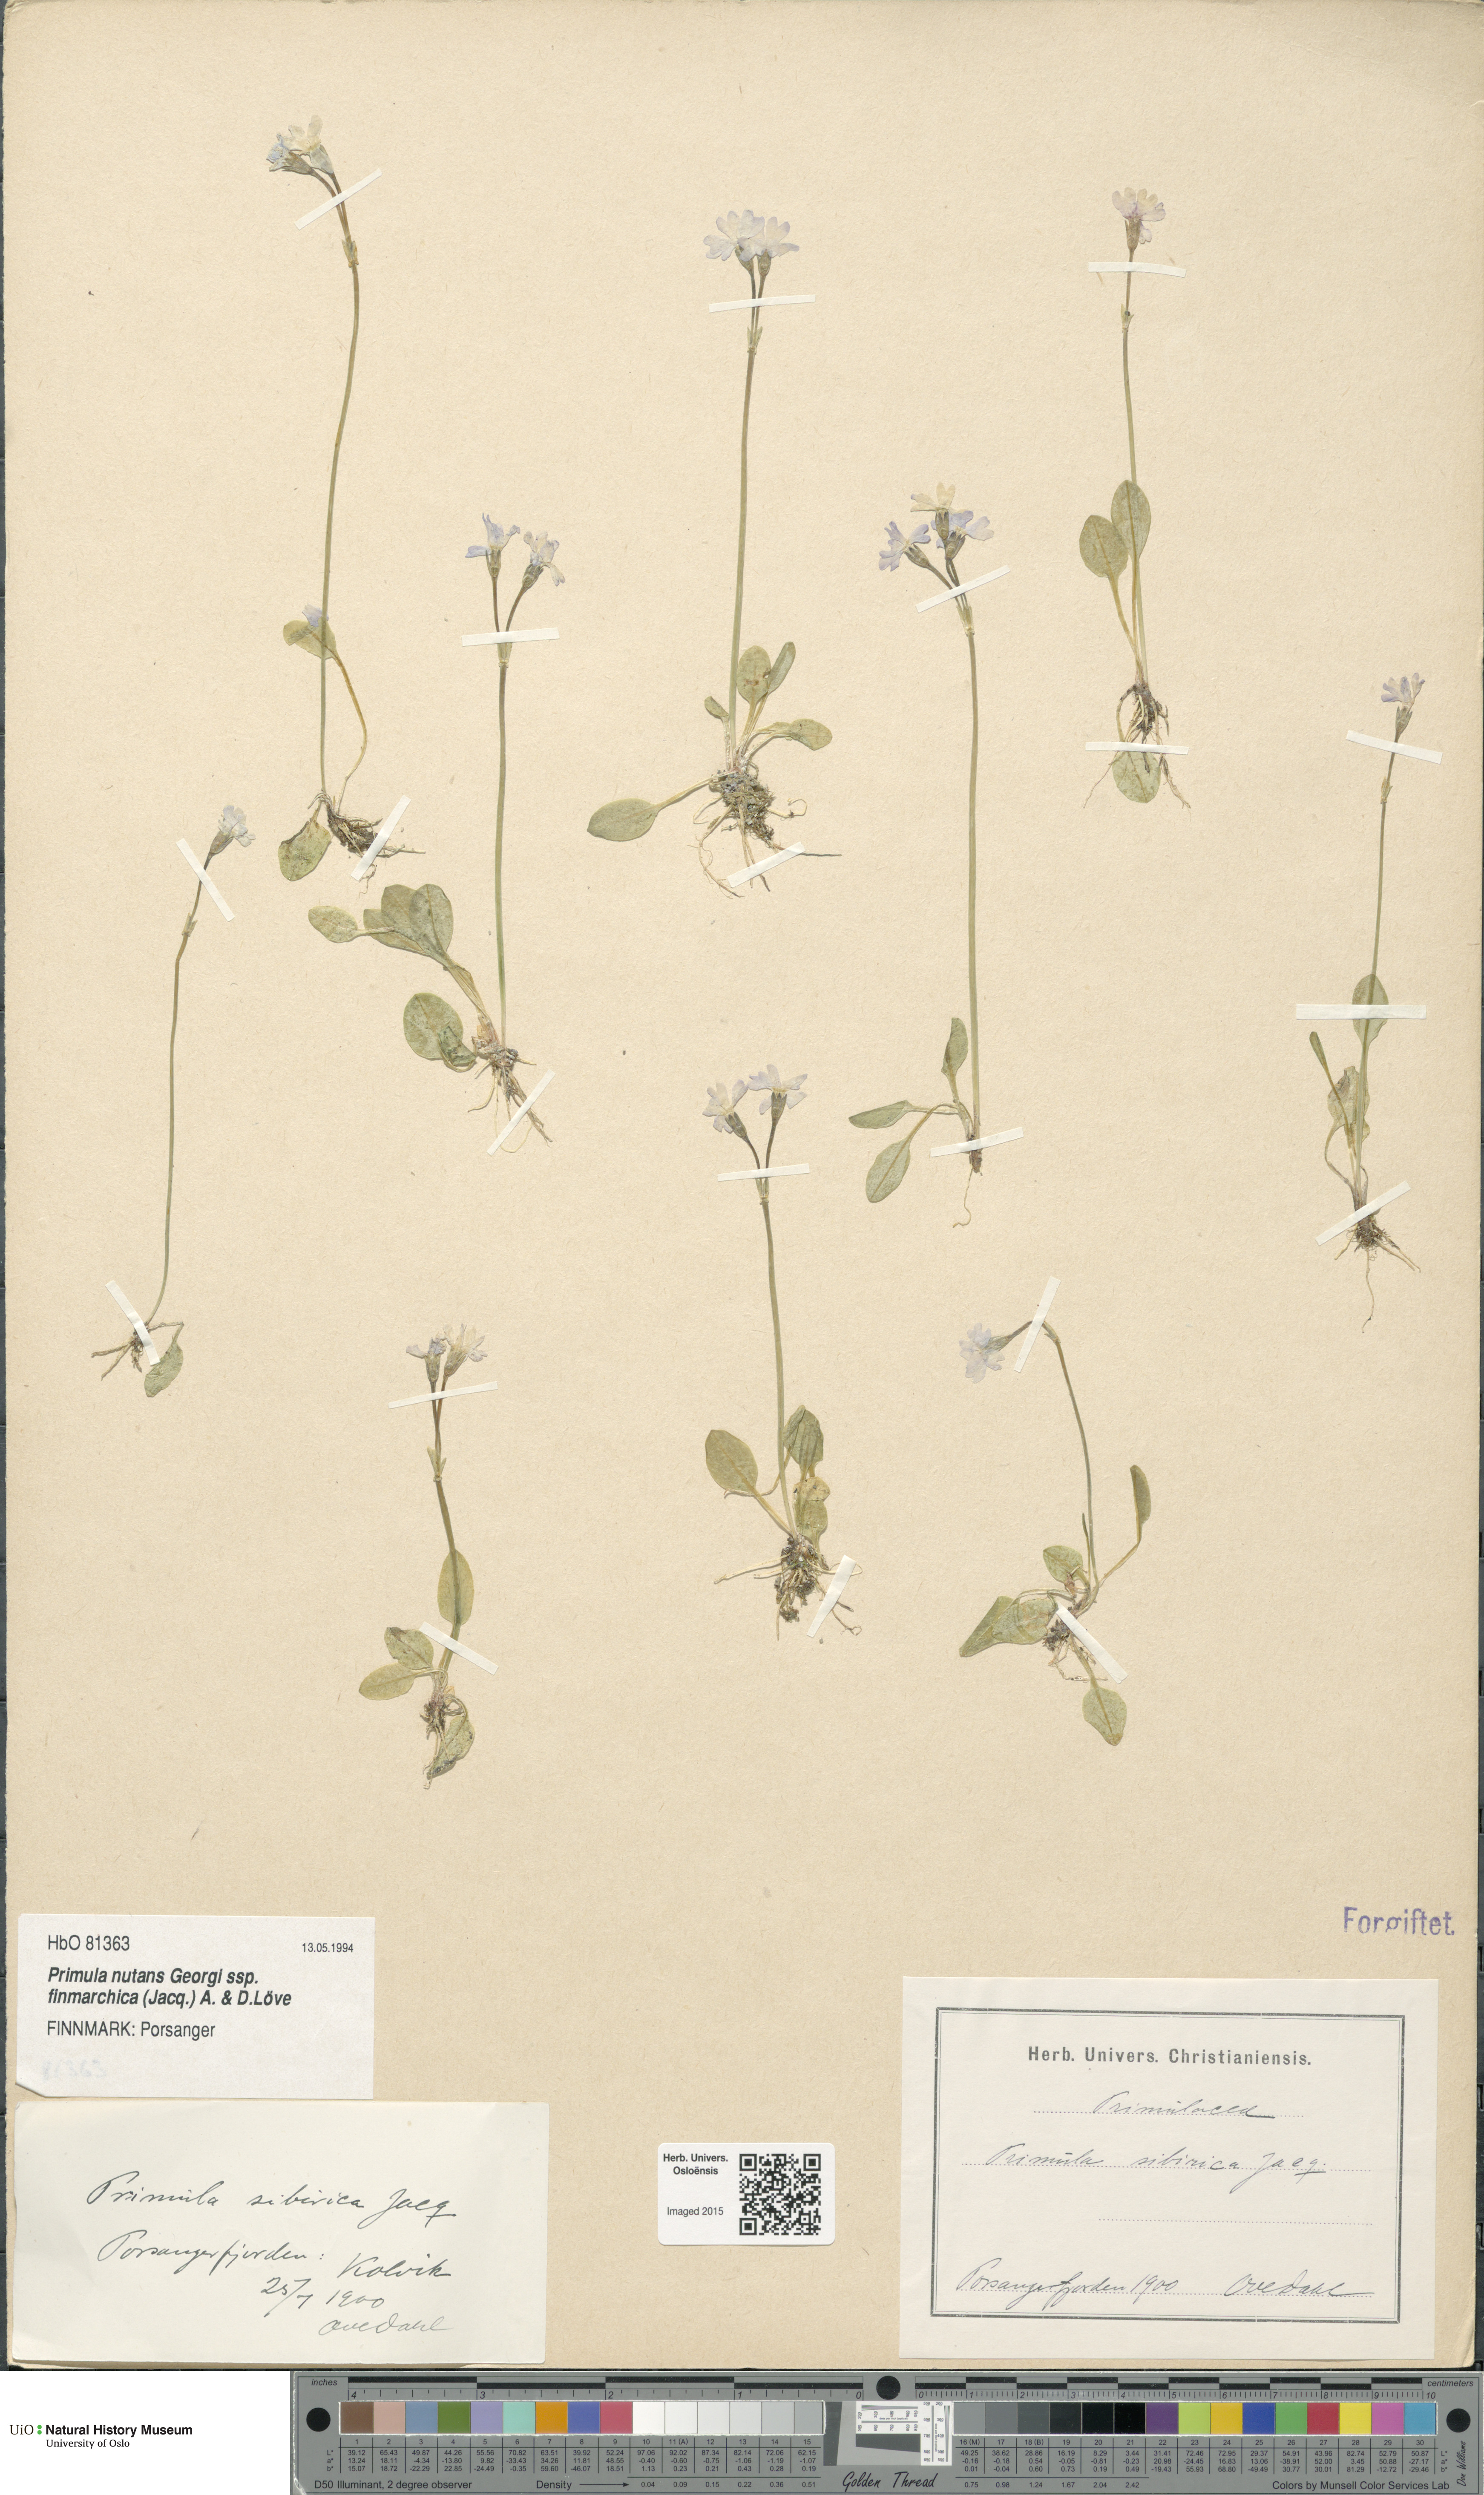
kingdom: Plantae
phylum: Tracheophyta
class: Magnoliopsida
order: Ericales
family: Primulaceae
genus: Primula
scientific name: Primula nutans
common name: Siberian primrose
